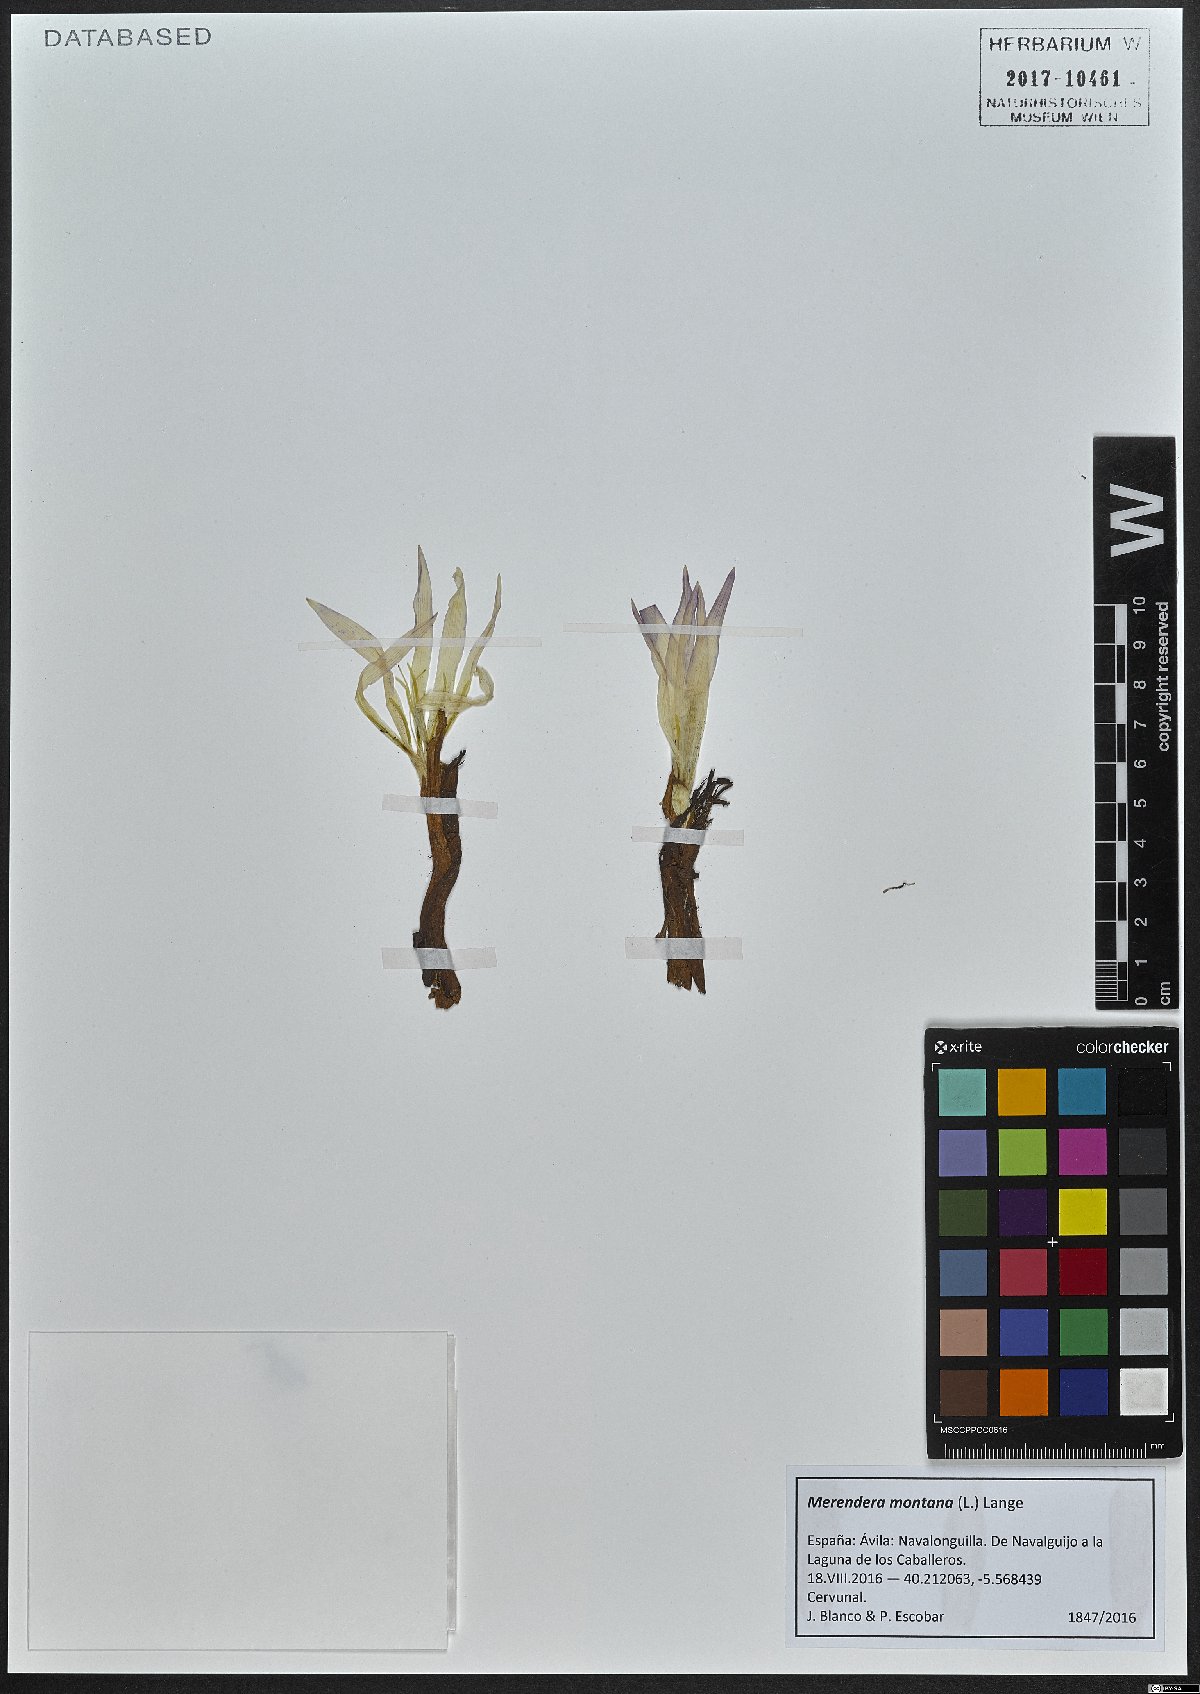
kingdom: Plantae
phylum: Tracheophyta
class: Liliopsida
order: Liliales
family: Colchicaceae
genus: Colchicum
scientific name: Colchicum montanum
